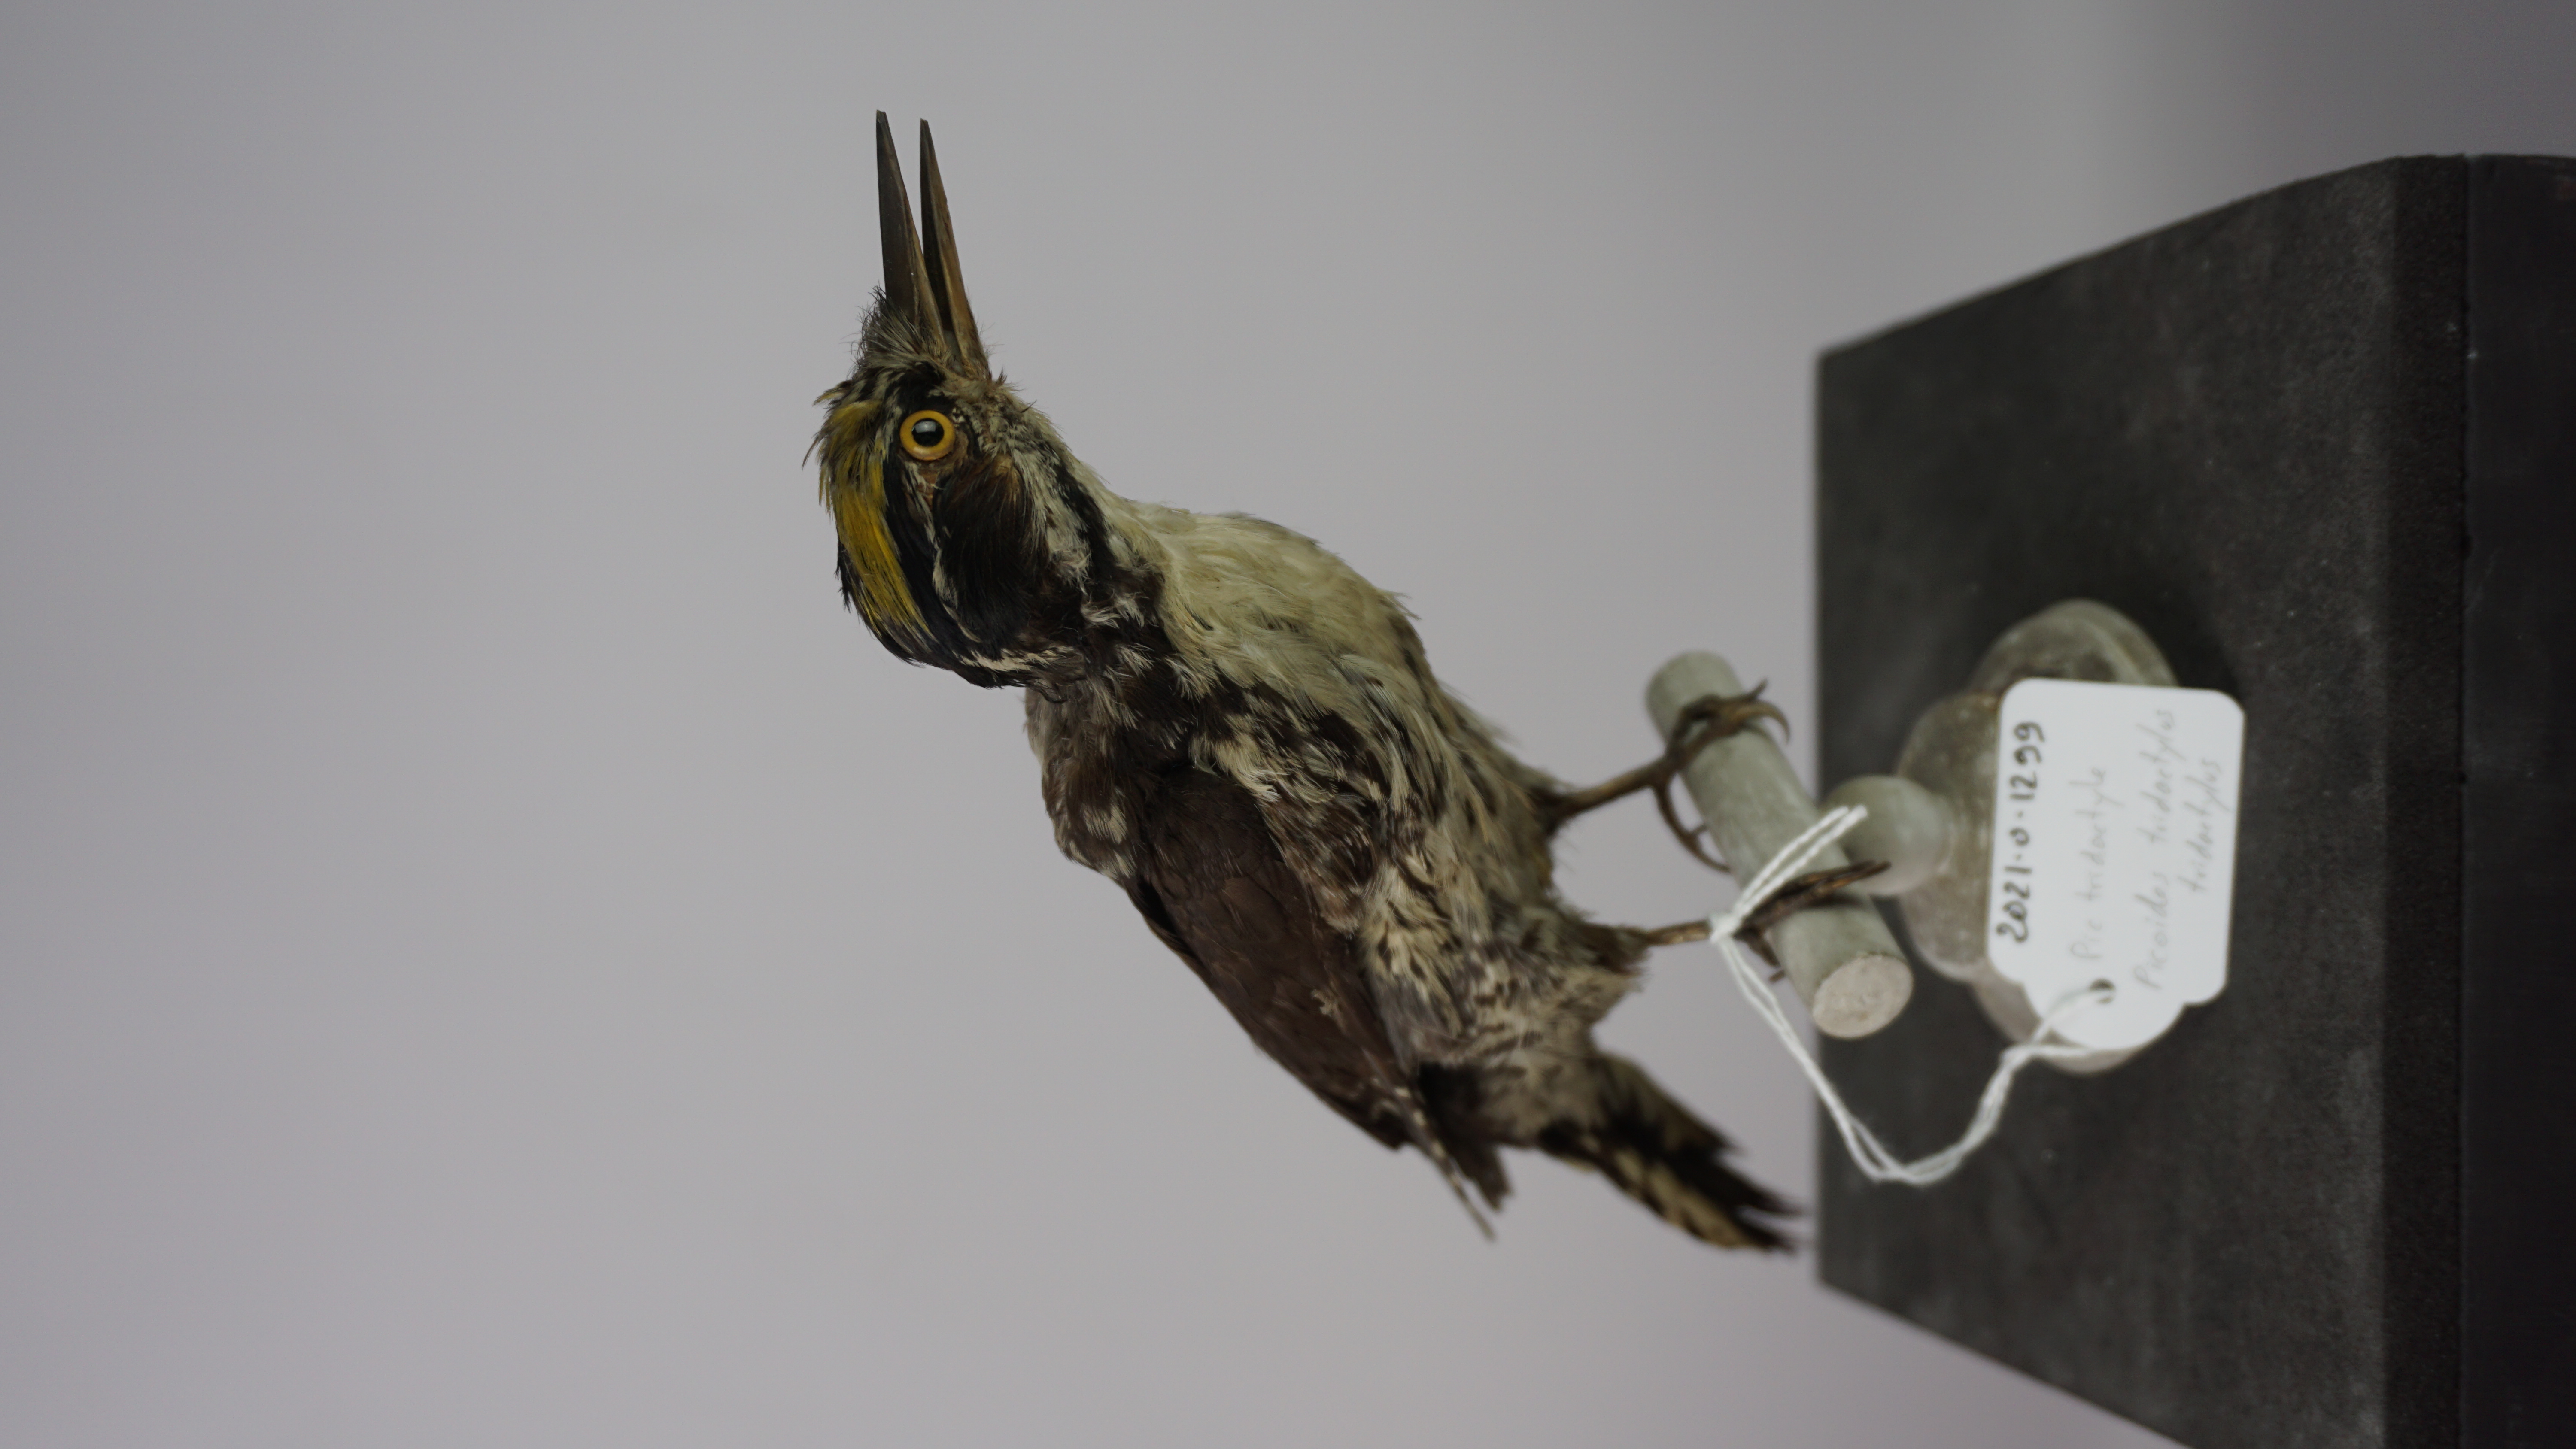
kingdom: Animalia
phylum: Chordata
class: Aves
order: Piciformes
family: Picidae
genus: Picoides
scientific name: Picoides tridactylus
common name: Eurasian three-toed woodpecker
